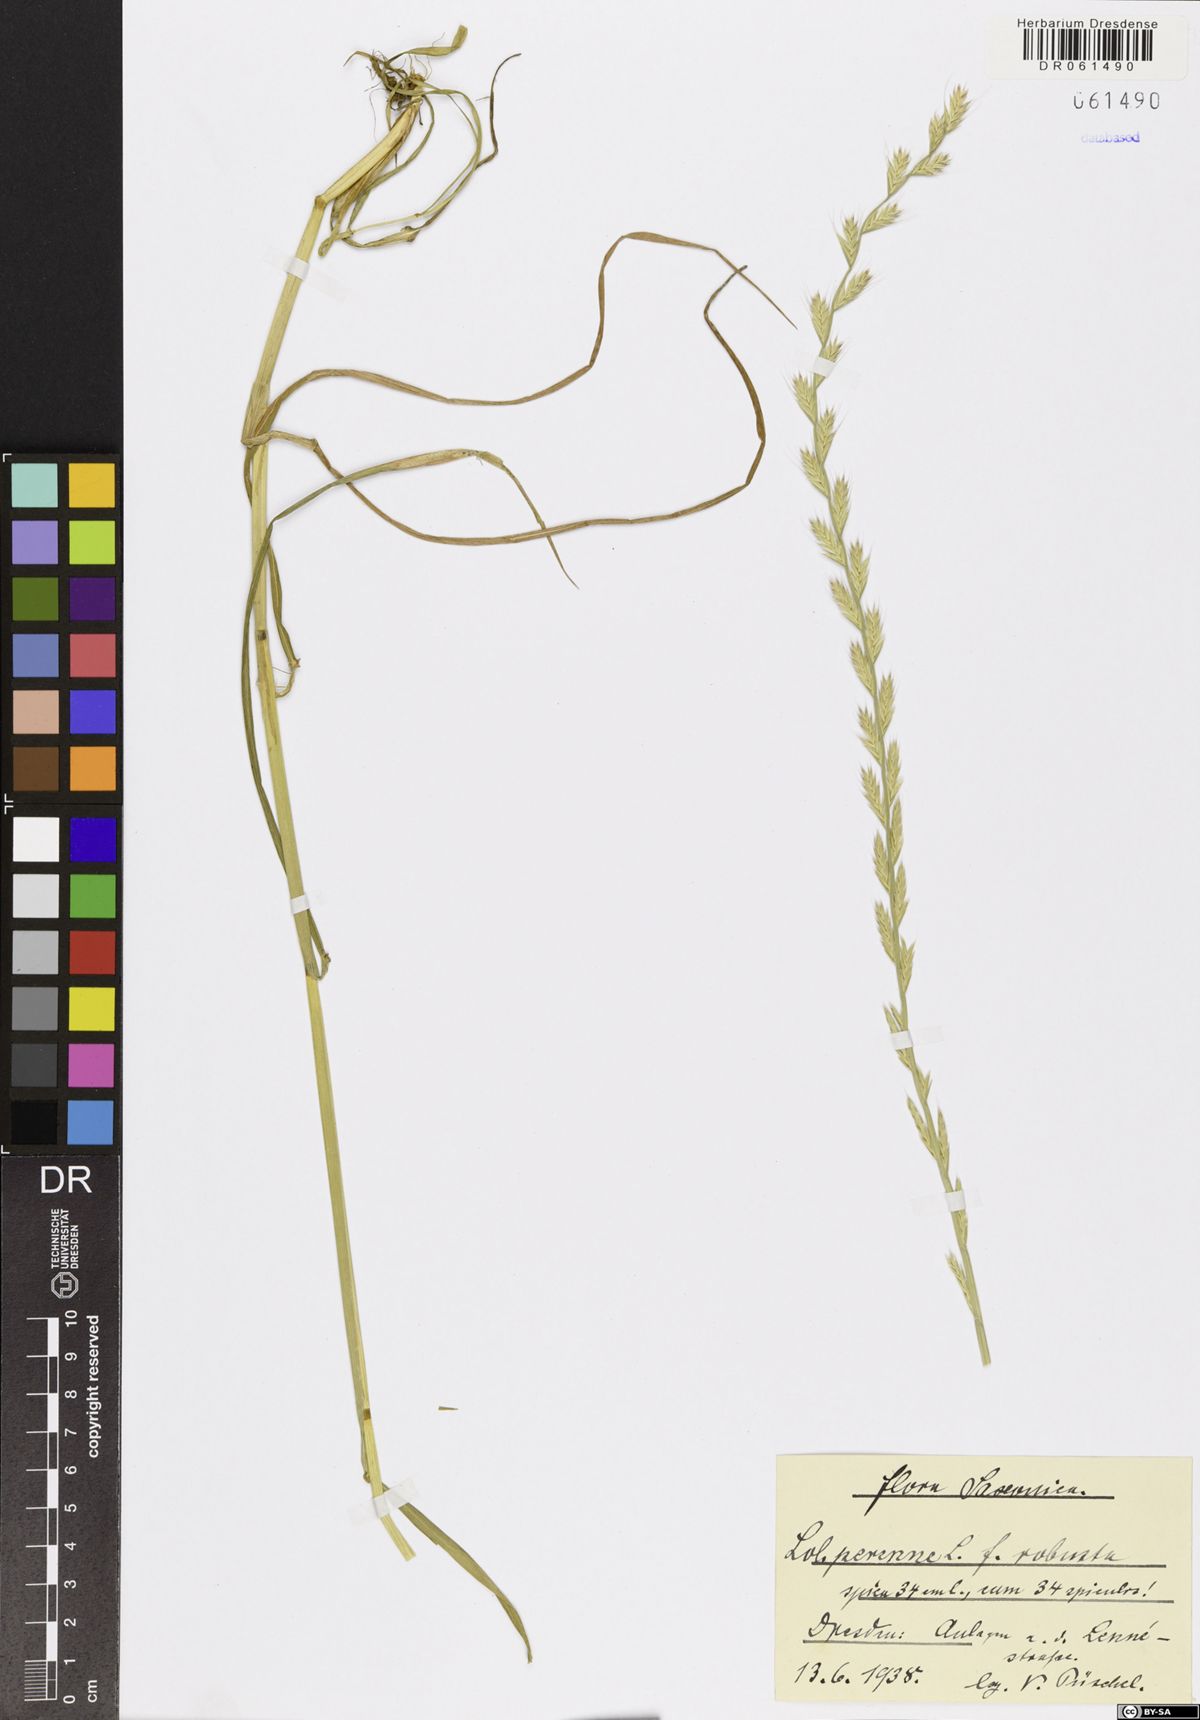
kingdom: Plantae
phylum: Tracheophyta
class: Liliopsida
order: Poales
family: Poaceae
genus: Lolium
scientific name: Lolium perenne
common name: Perennial ryegrass
